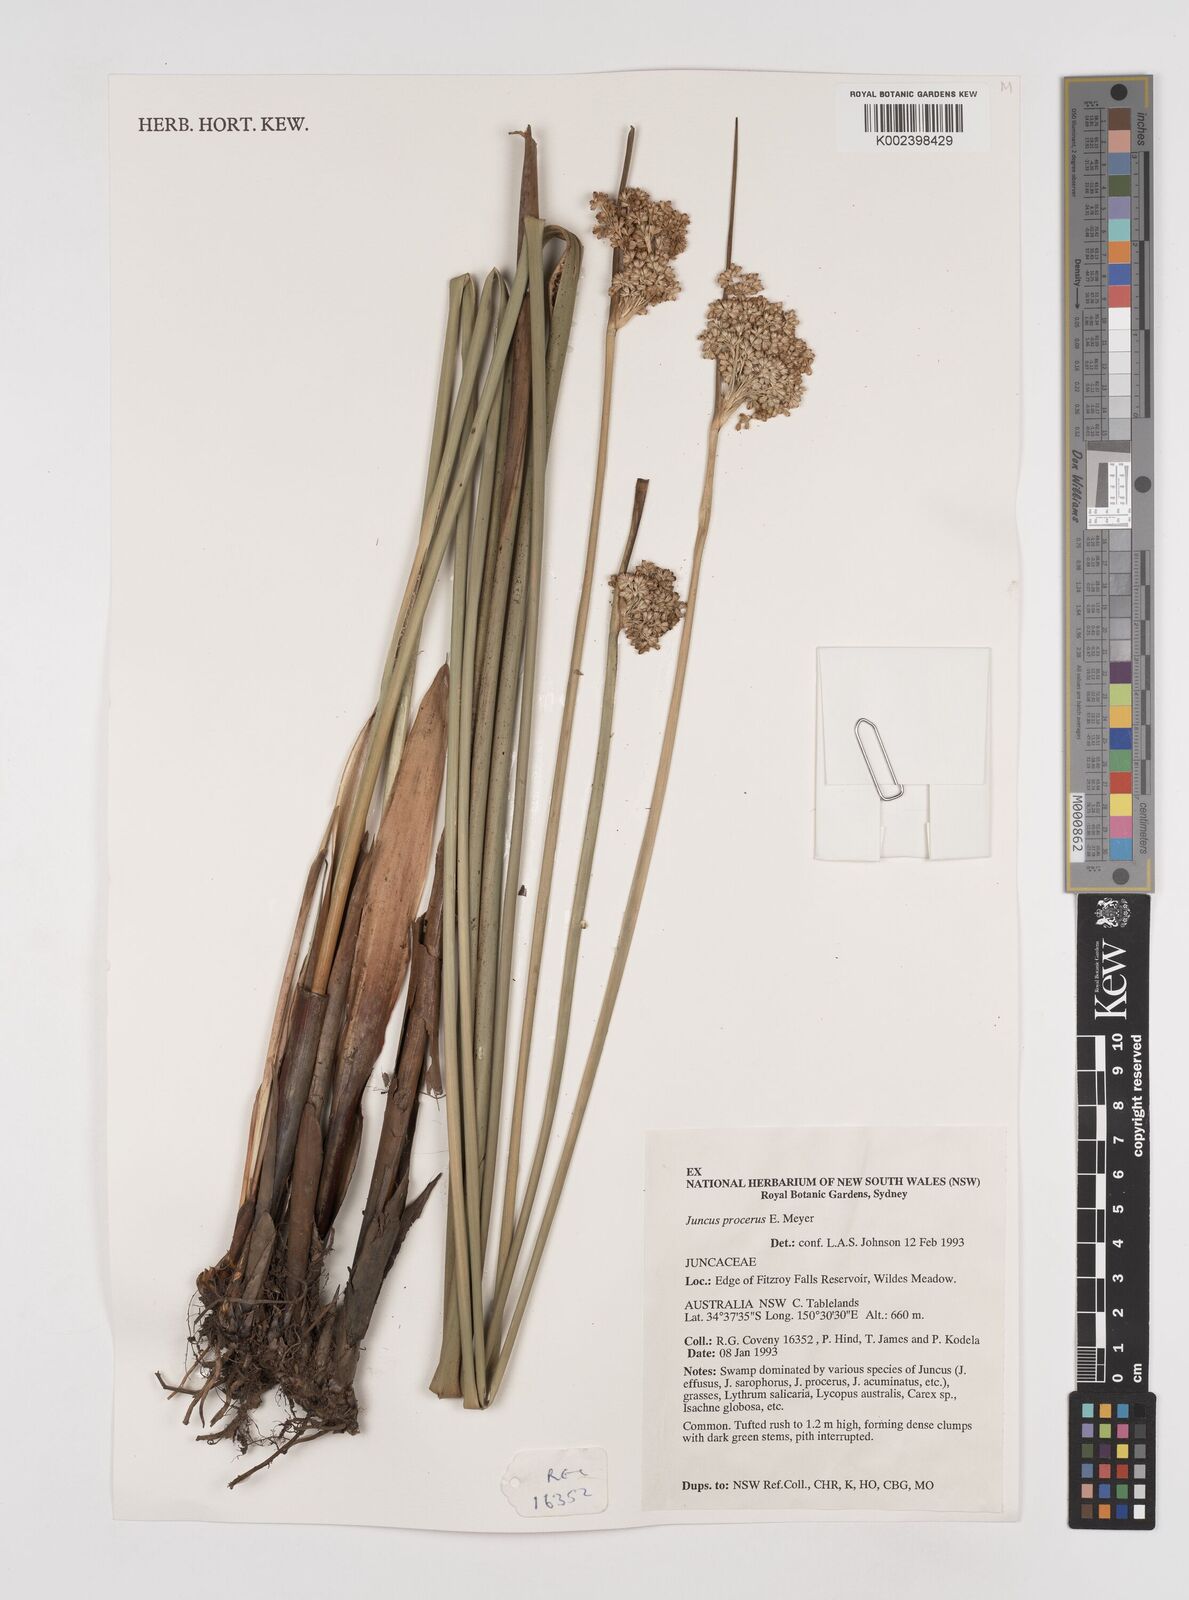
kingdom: Plantae
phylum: Tracheophyta
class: Liliopsida
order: Poales
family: Juncaceae
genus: Juncus
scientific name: Juncus procerus
